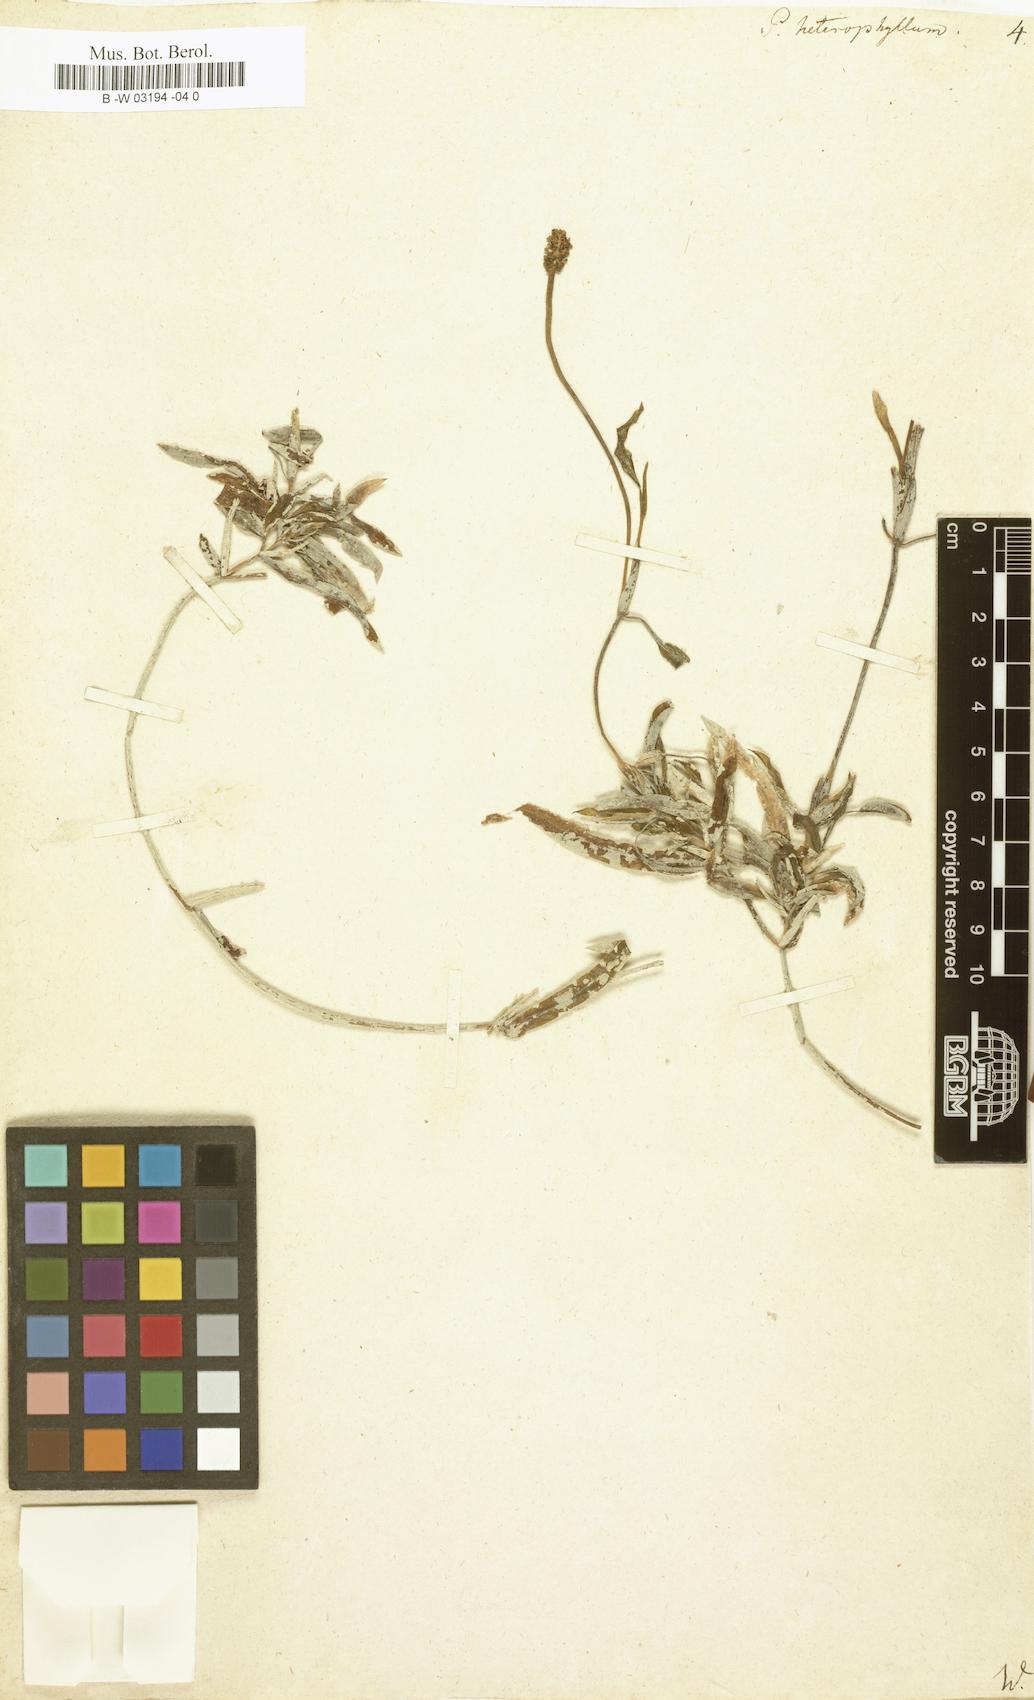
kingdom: Plantae
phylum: Tracheophyta
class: Liliopsida
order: Alismatales
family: Potamogetonaceae
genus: Potamogeton
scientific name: Potamogeton heterophyllus
